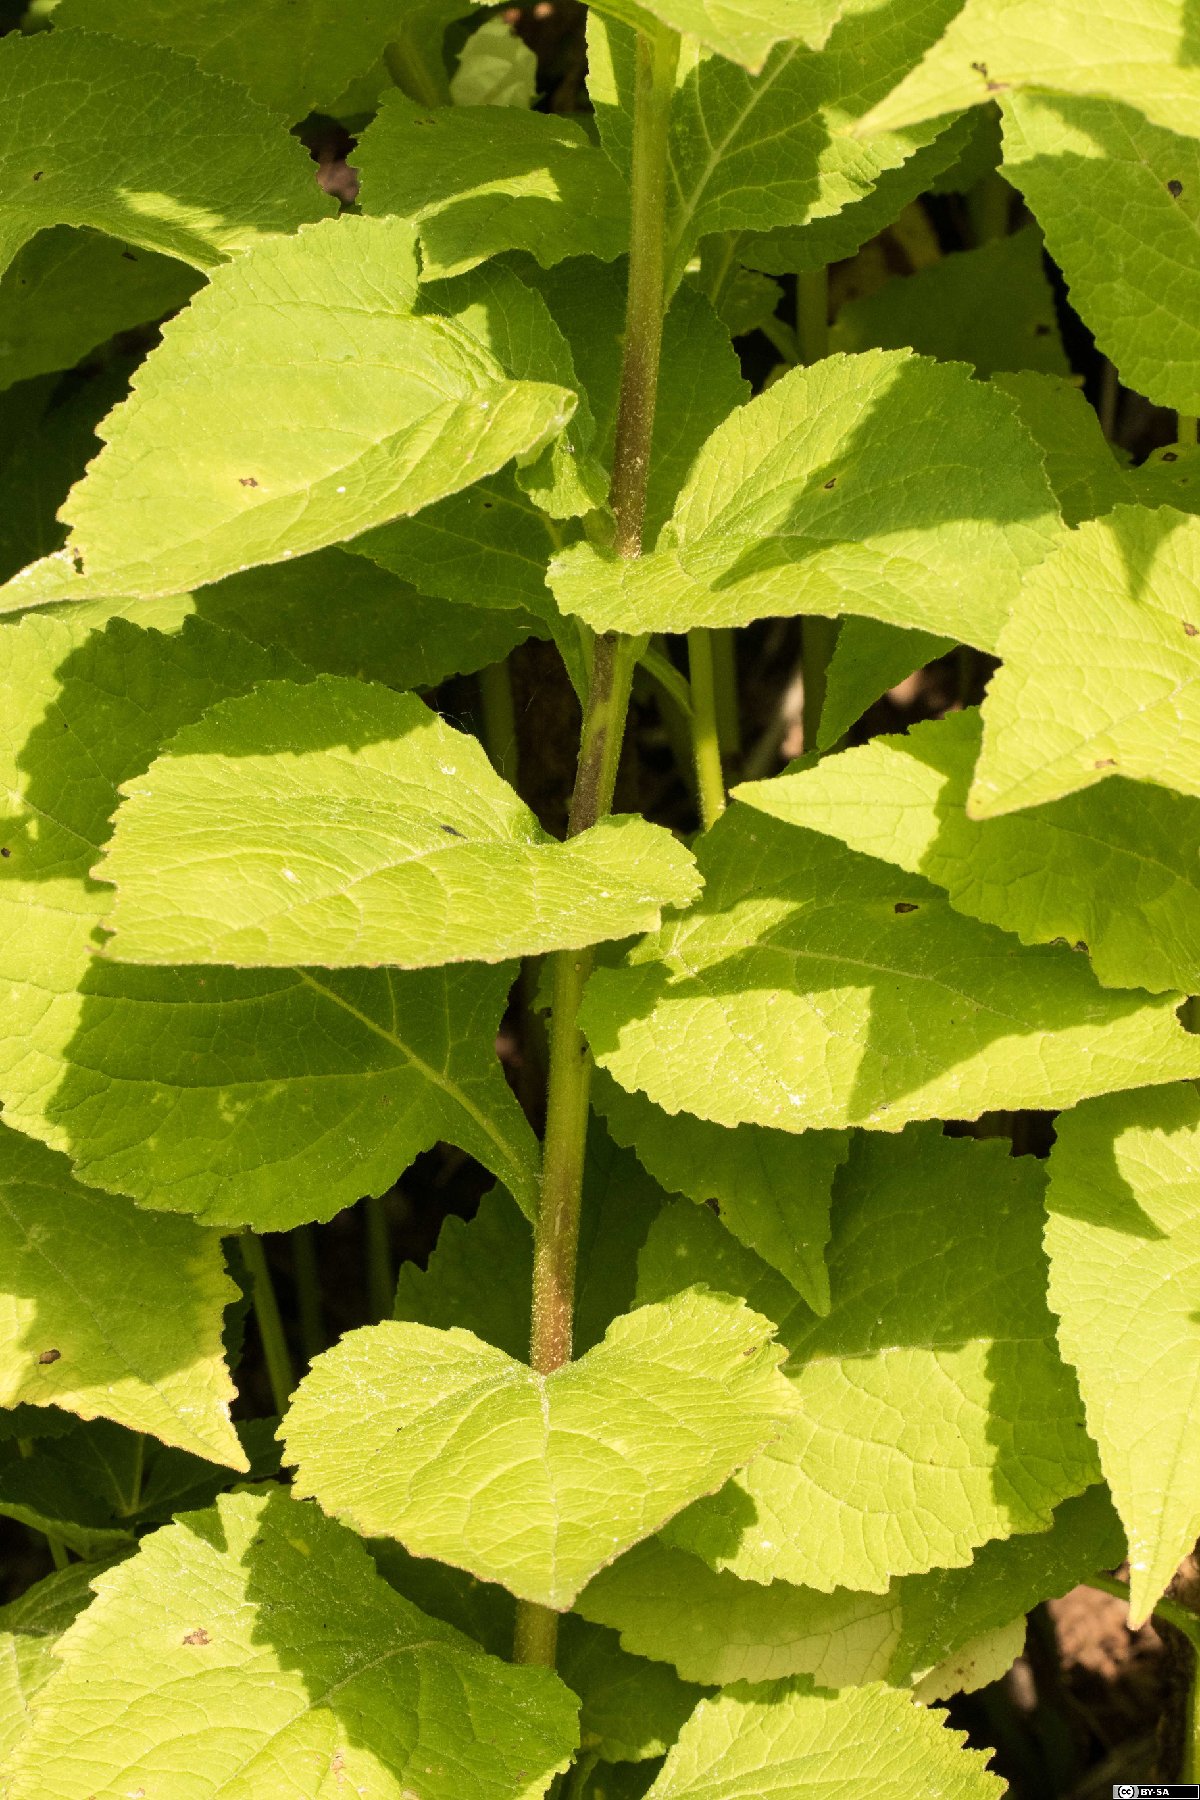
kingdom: Plantae
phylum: Tracheophyta
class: Magnoliopsida
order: Asterales
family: Campanulaceae
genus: Campanula
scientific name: Campanula latifolia
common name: Giant bellflower
